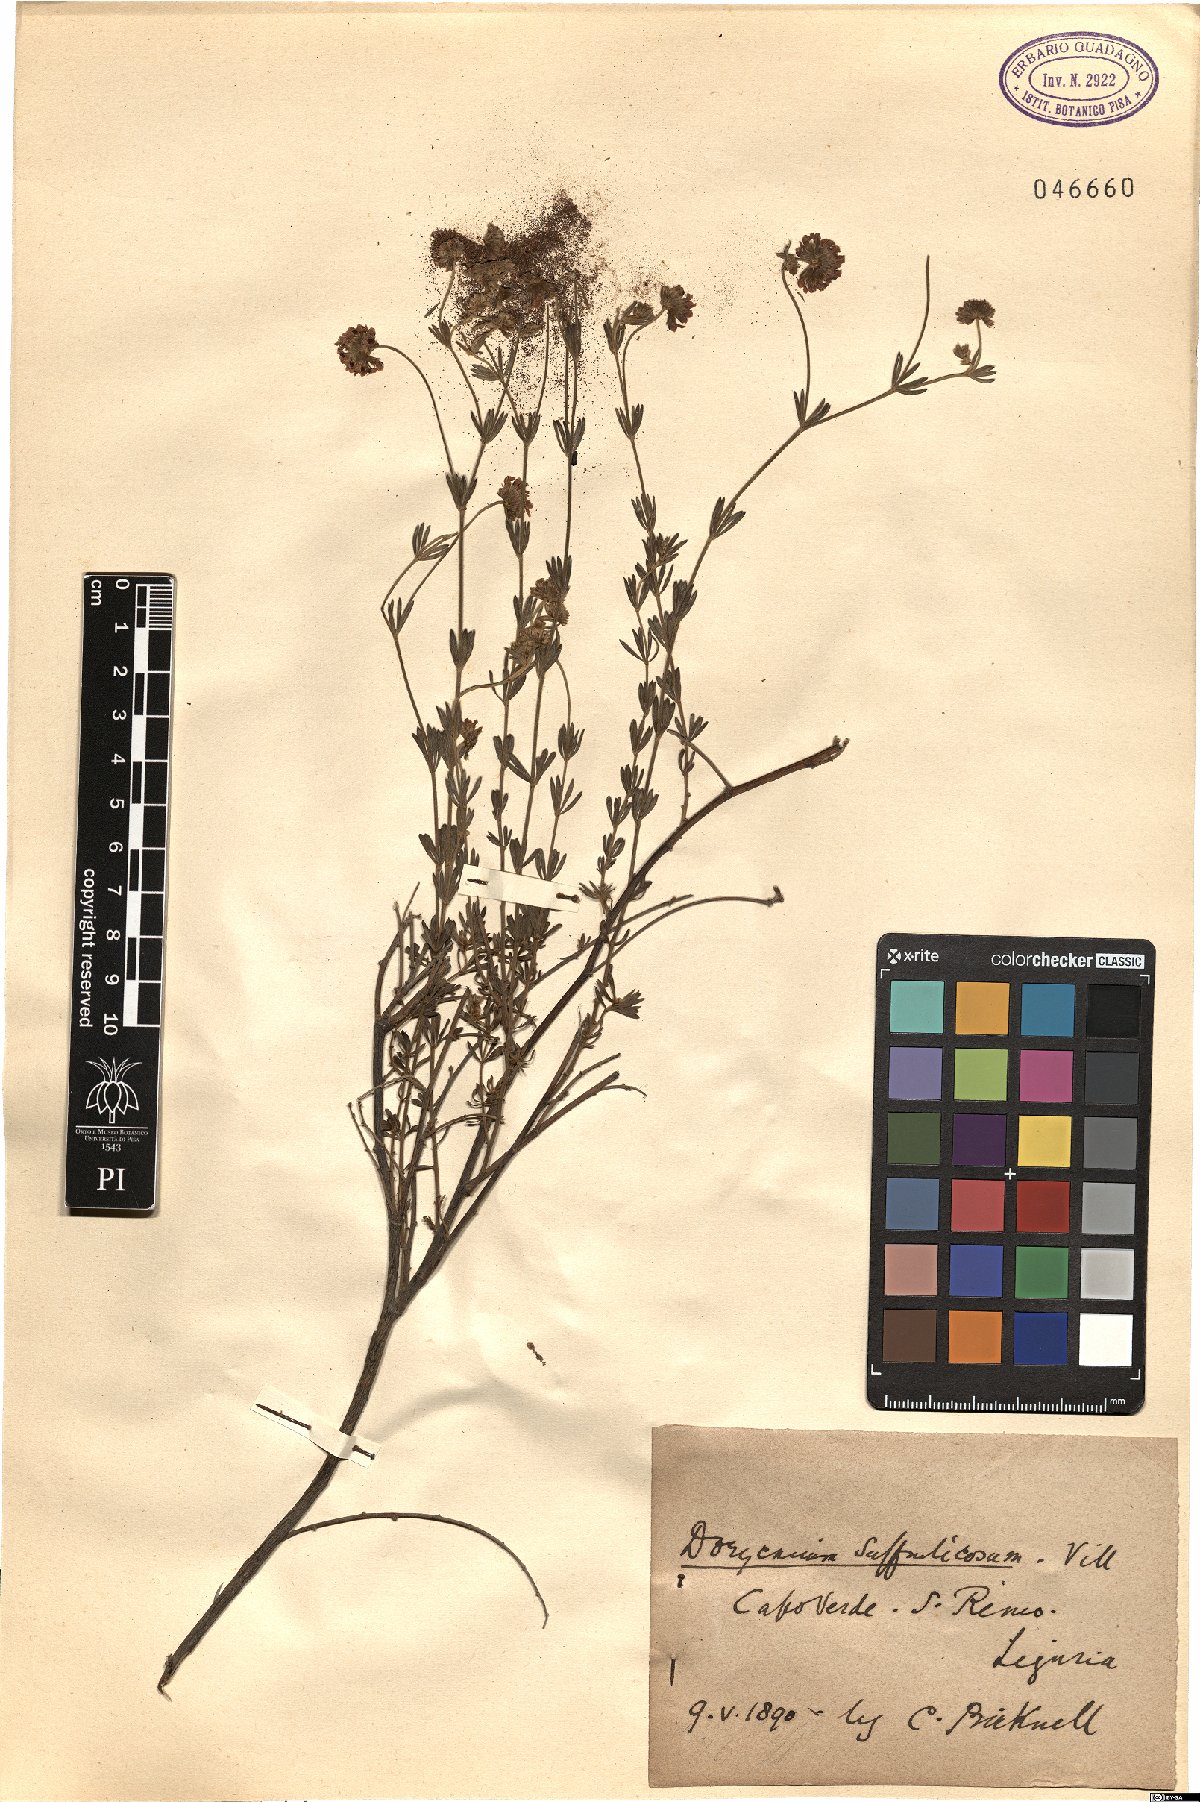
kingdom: Plantae
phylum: Tracheophyta
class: Magnoliopsida
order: Fabales
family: Fabaceae
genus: Lotus
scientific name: Lotus dorycnium
